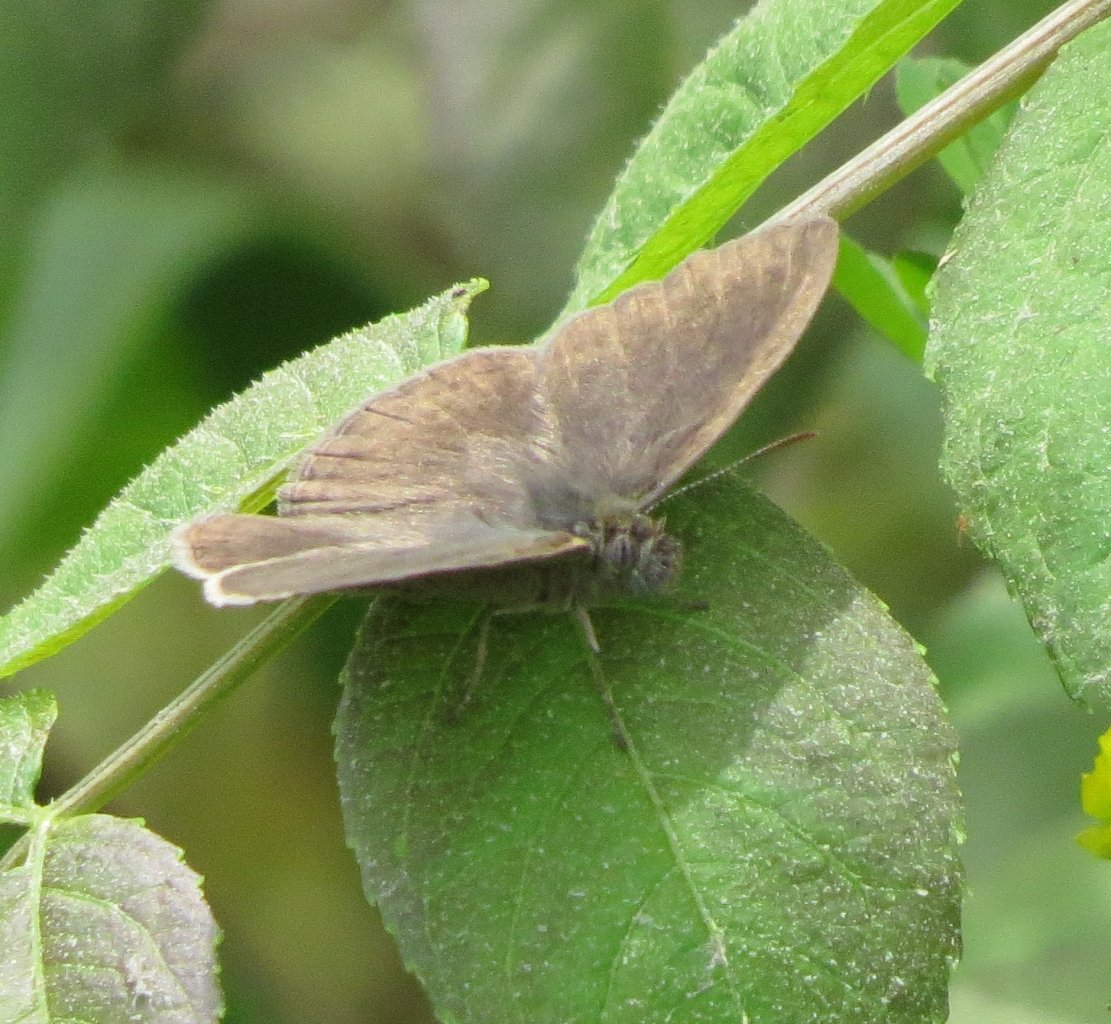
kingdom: Animalia
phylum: Arthropoda
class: Insecta
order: Lepidoptera
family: Nymphalidae
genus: Hermeuptychia
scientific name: Hermeuptychia hermes
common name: Carolina Satyr
